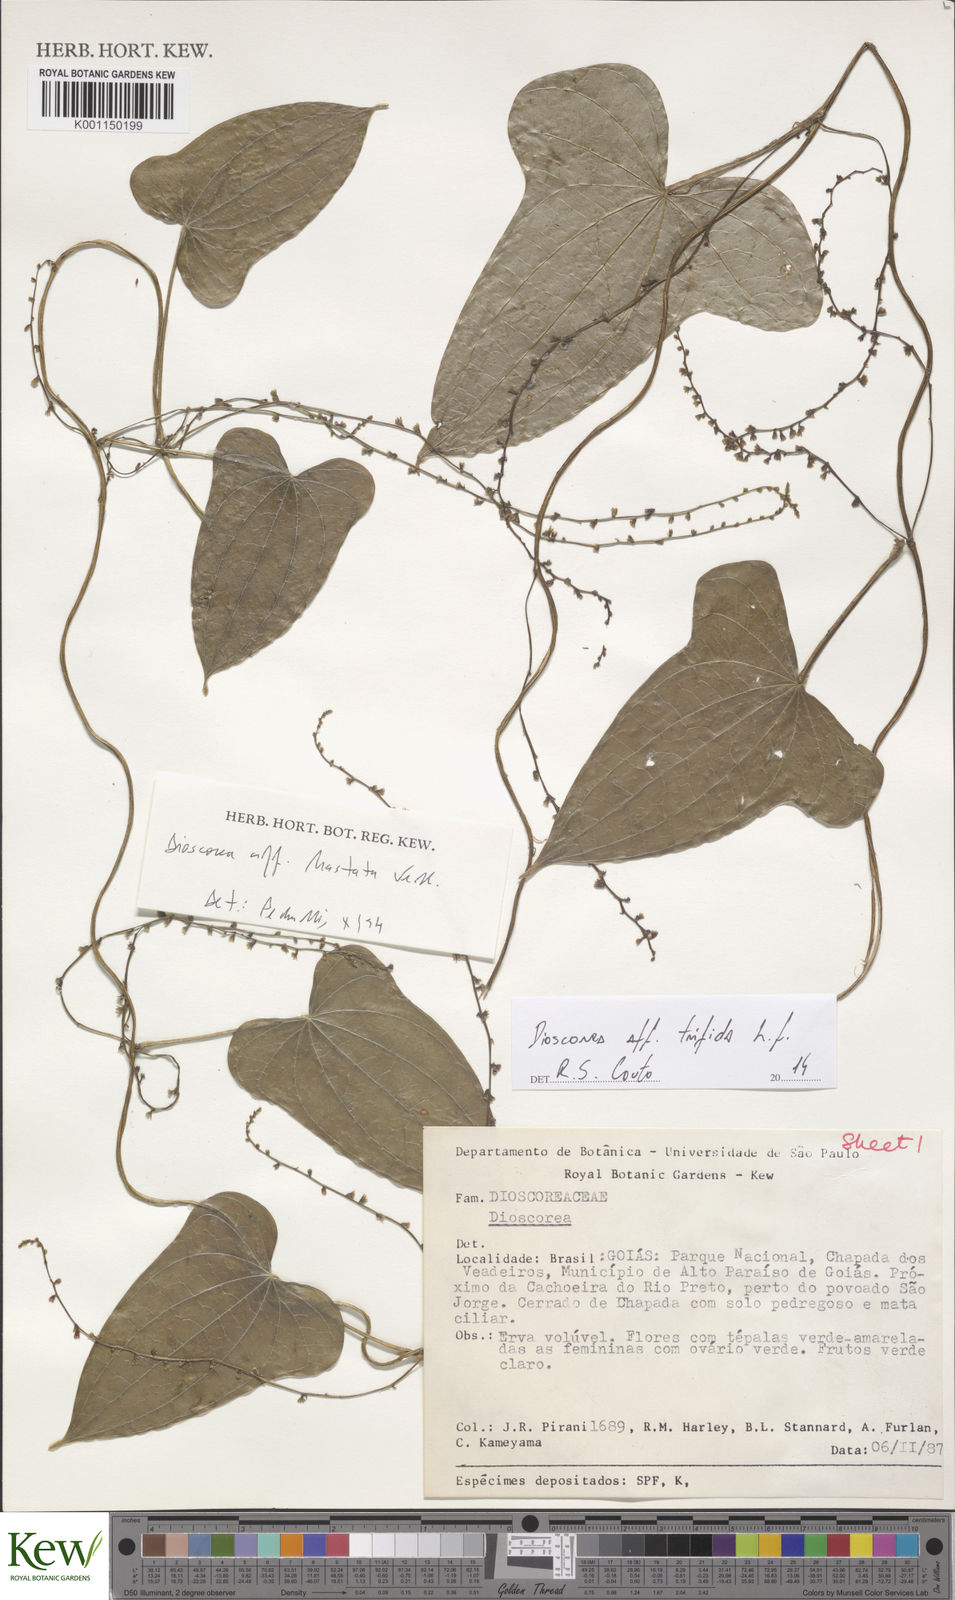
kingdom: Plantae
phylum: Tracheophyta
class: Liliopsida
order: Dioscoreales
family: Dioscoreaceae
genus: Dioscorea
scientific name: Dioscorea
